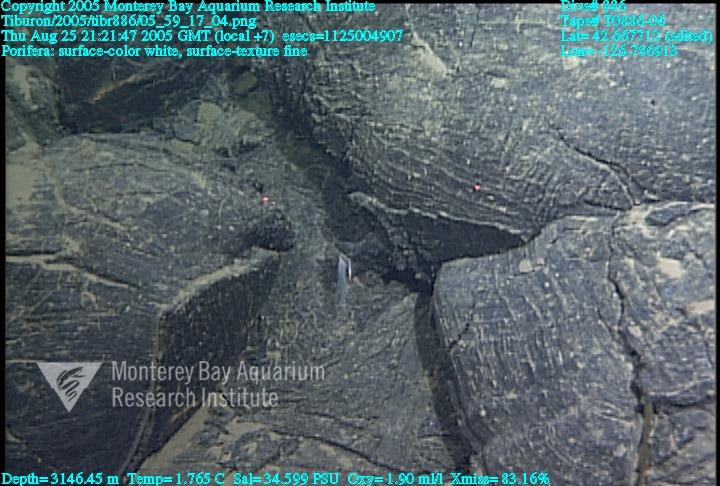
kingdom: Animalia
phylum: Porifera
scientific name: Porifera
